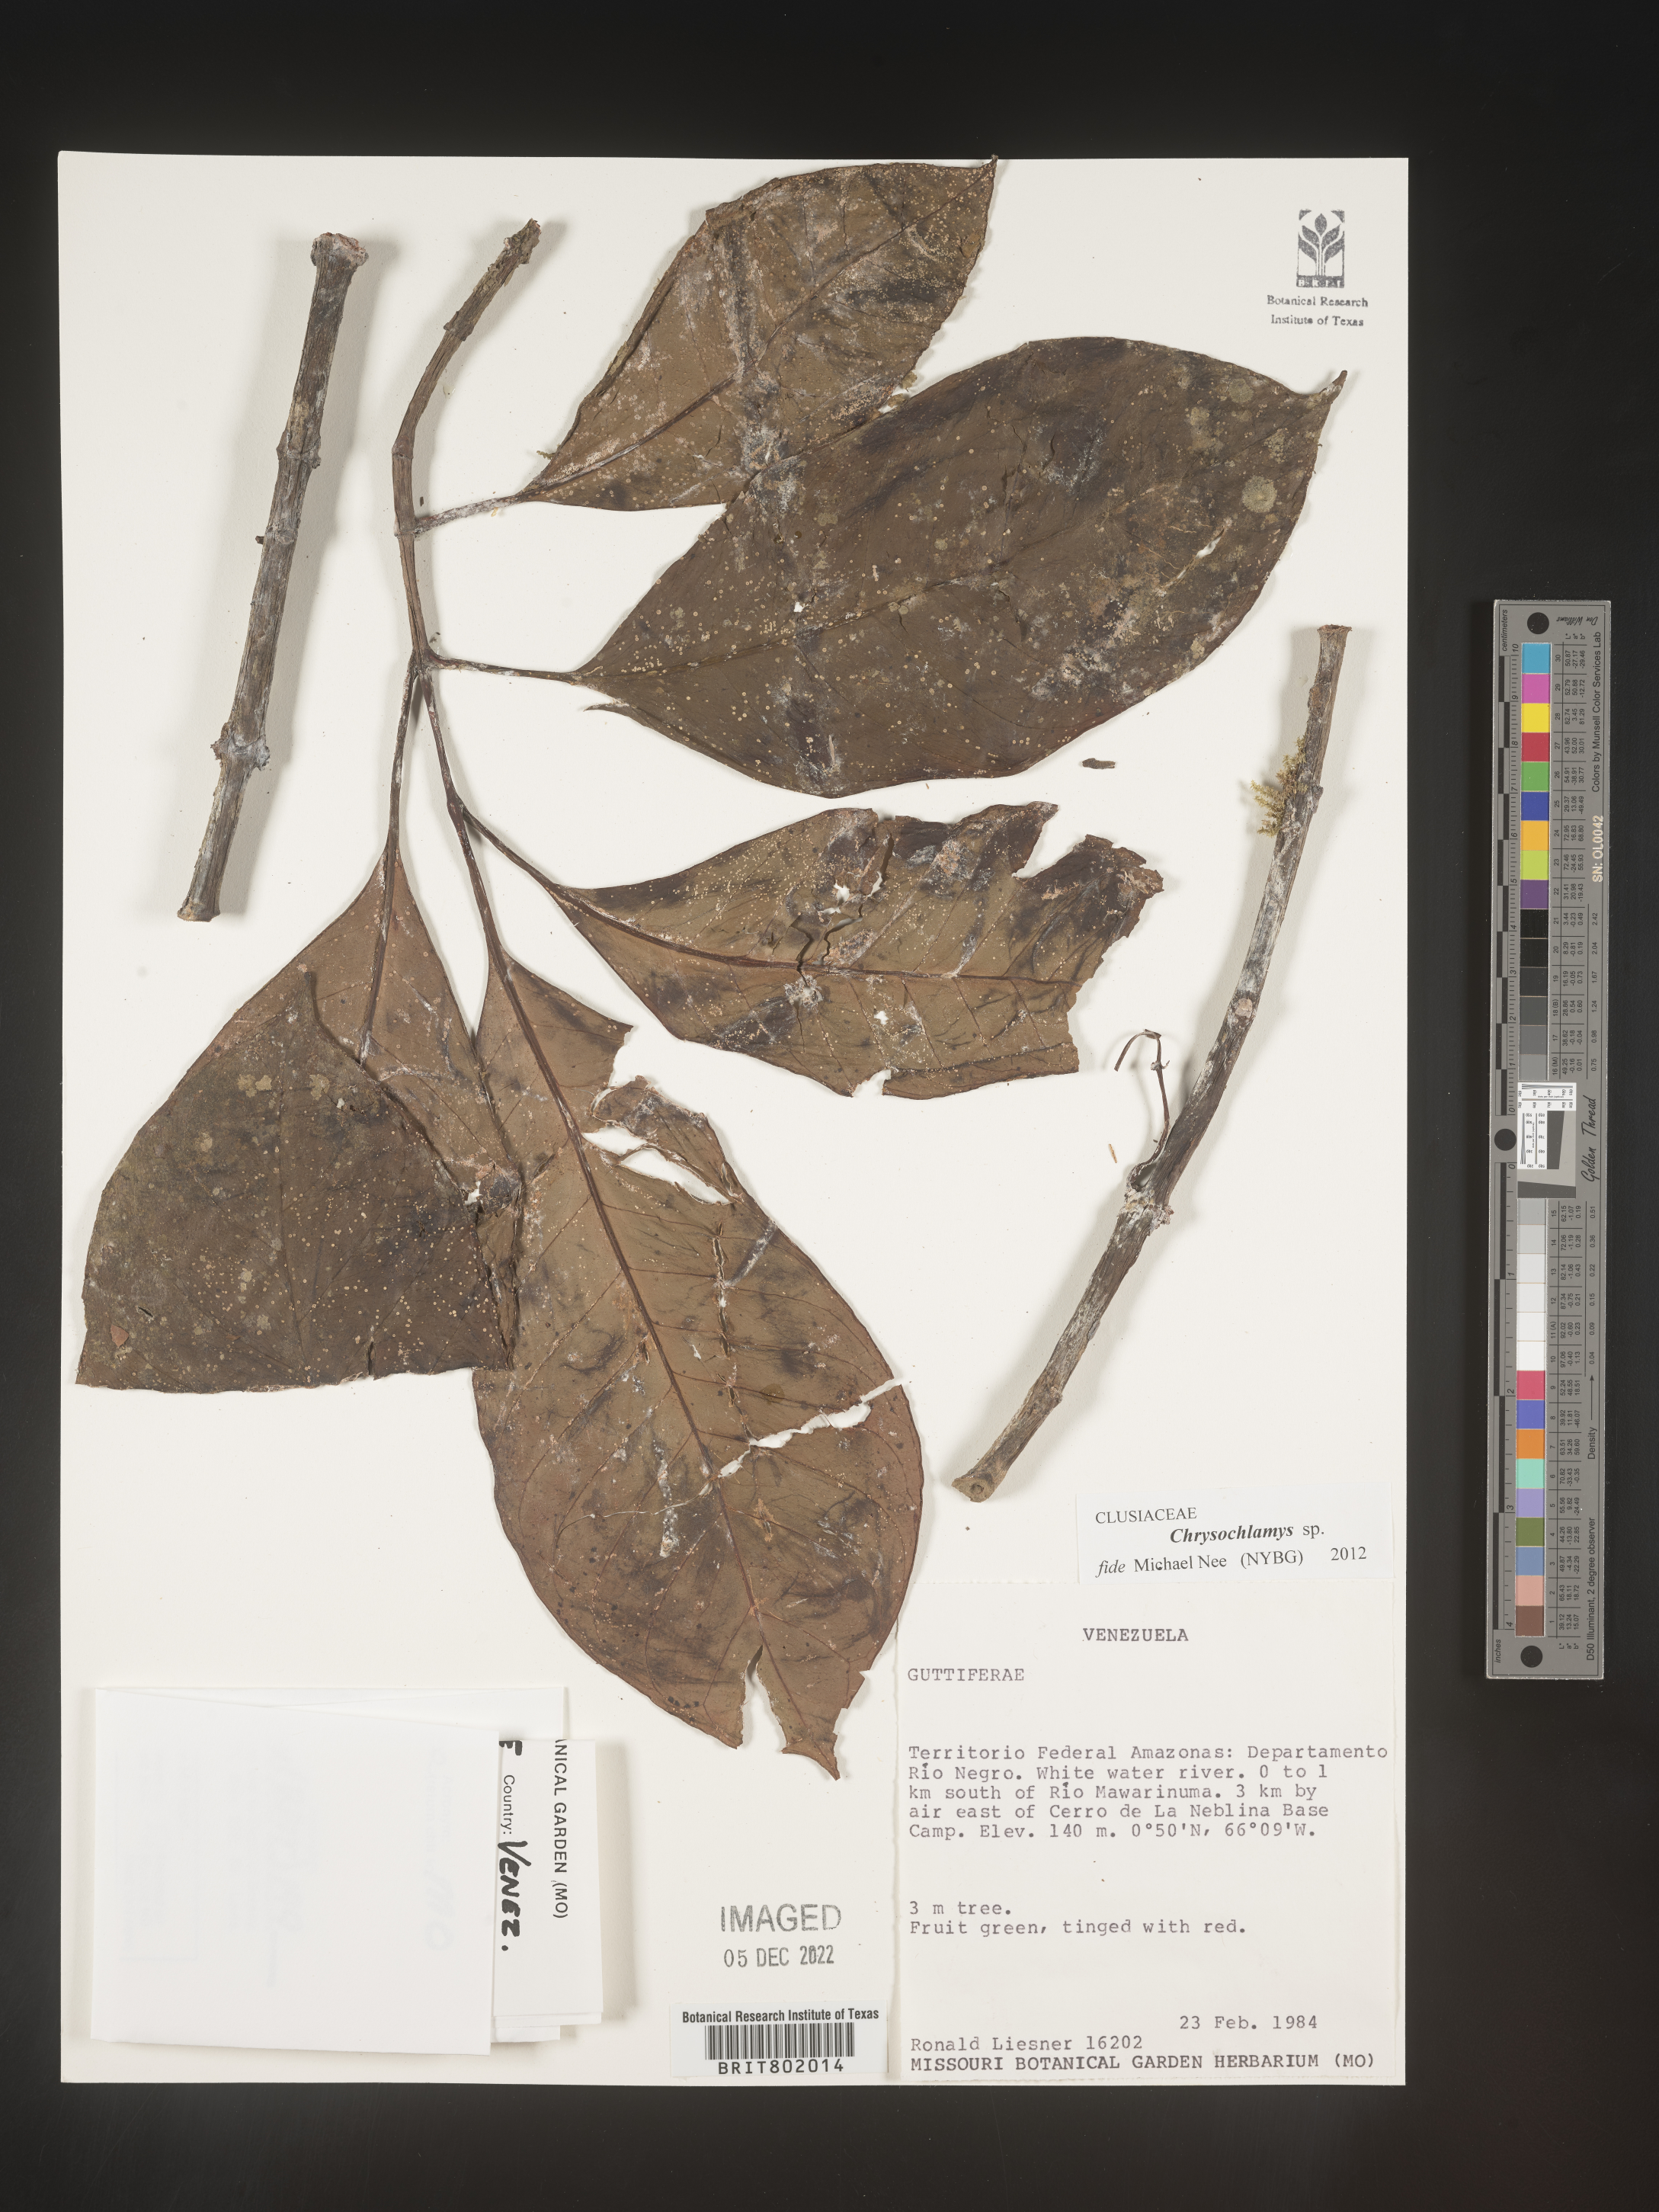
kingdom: Plantae
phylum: Tracheophyta
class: Magnoliopsida
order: Malpighiales
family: Clusiaceae
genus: Chrysochlamys
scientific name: Chrysochlamys
